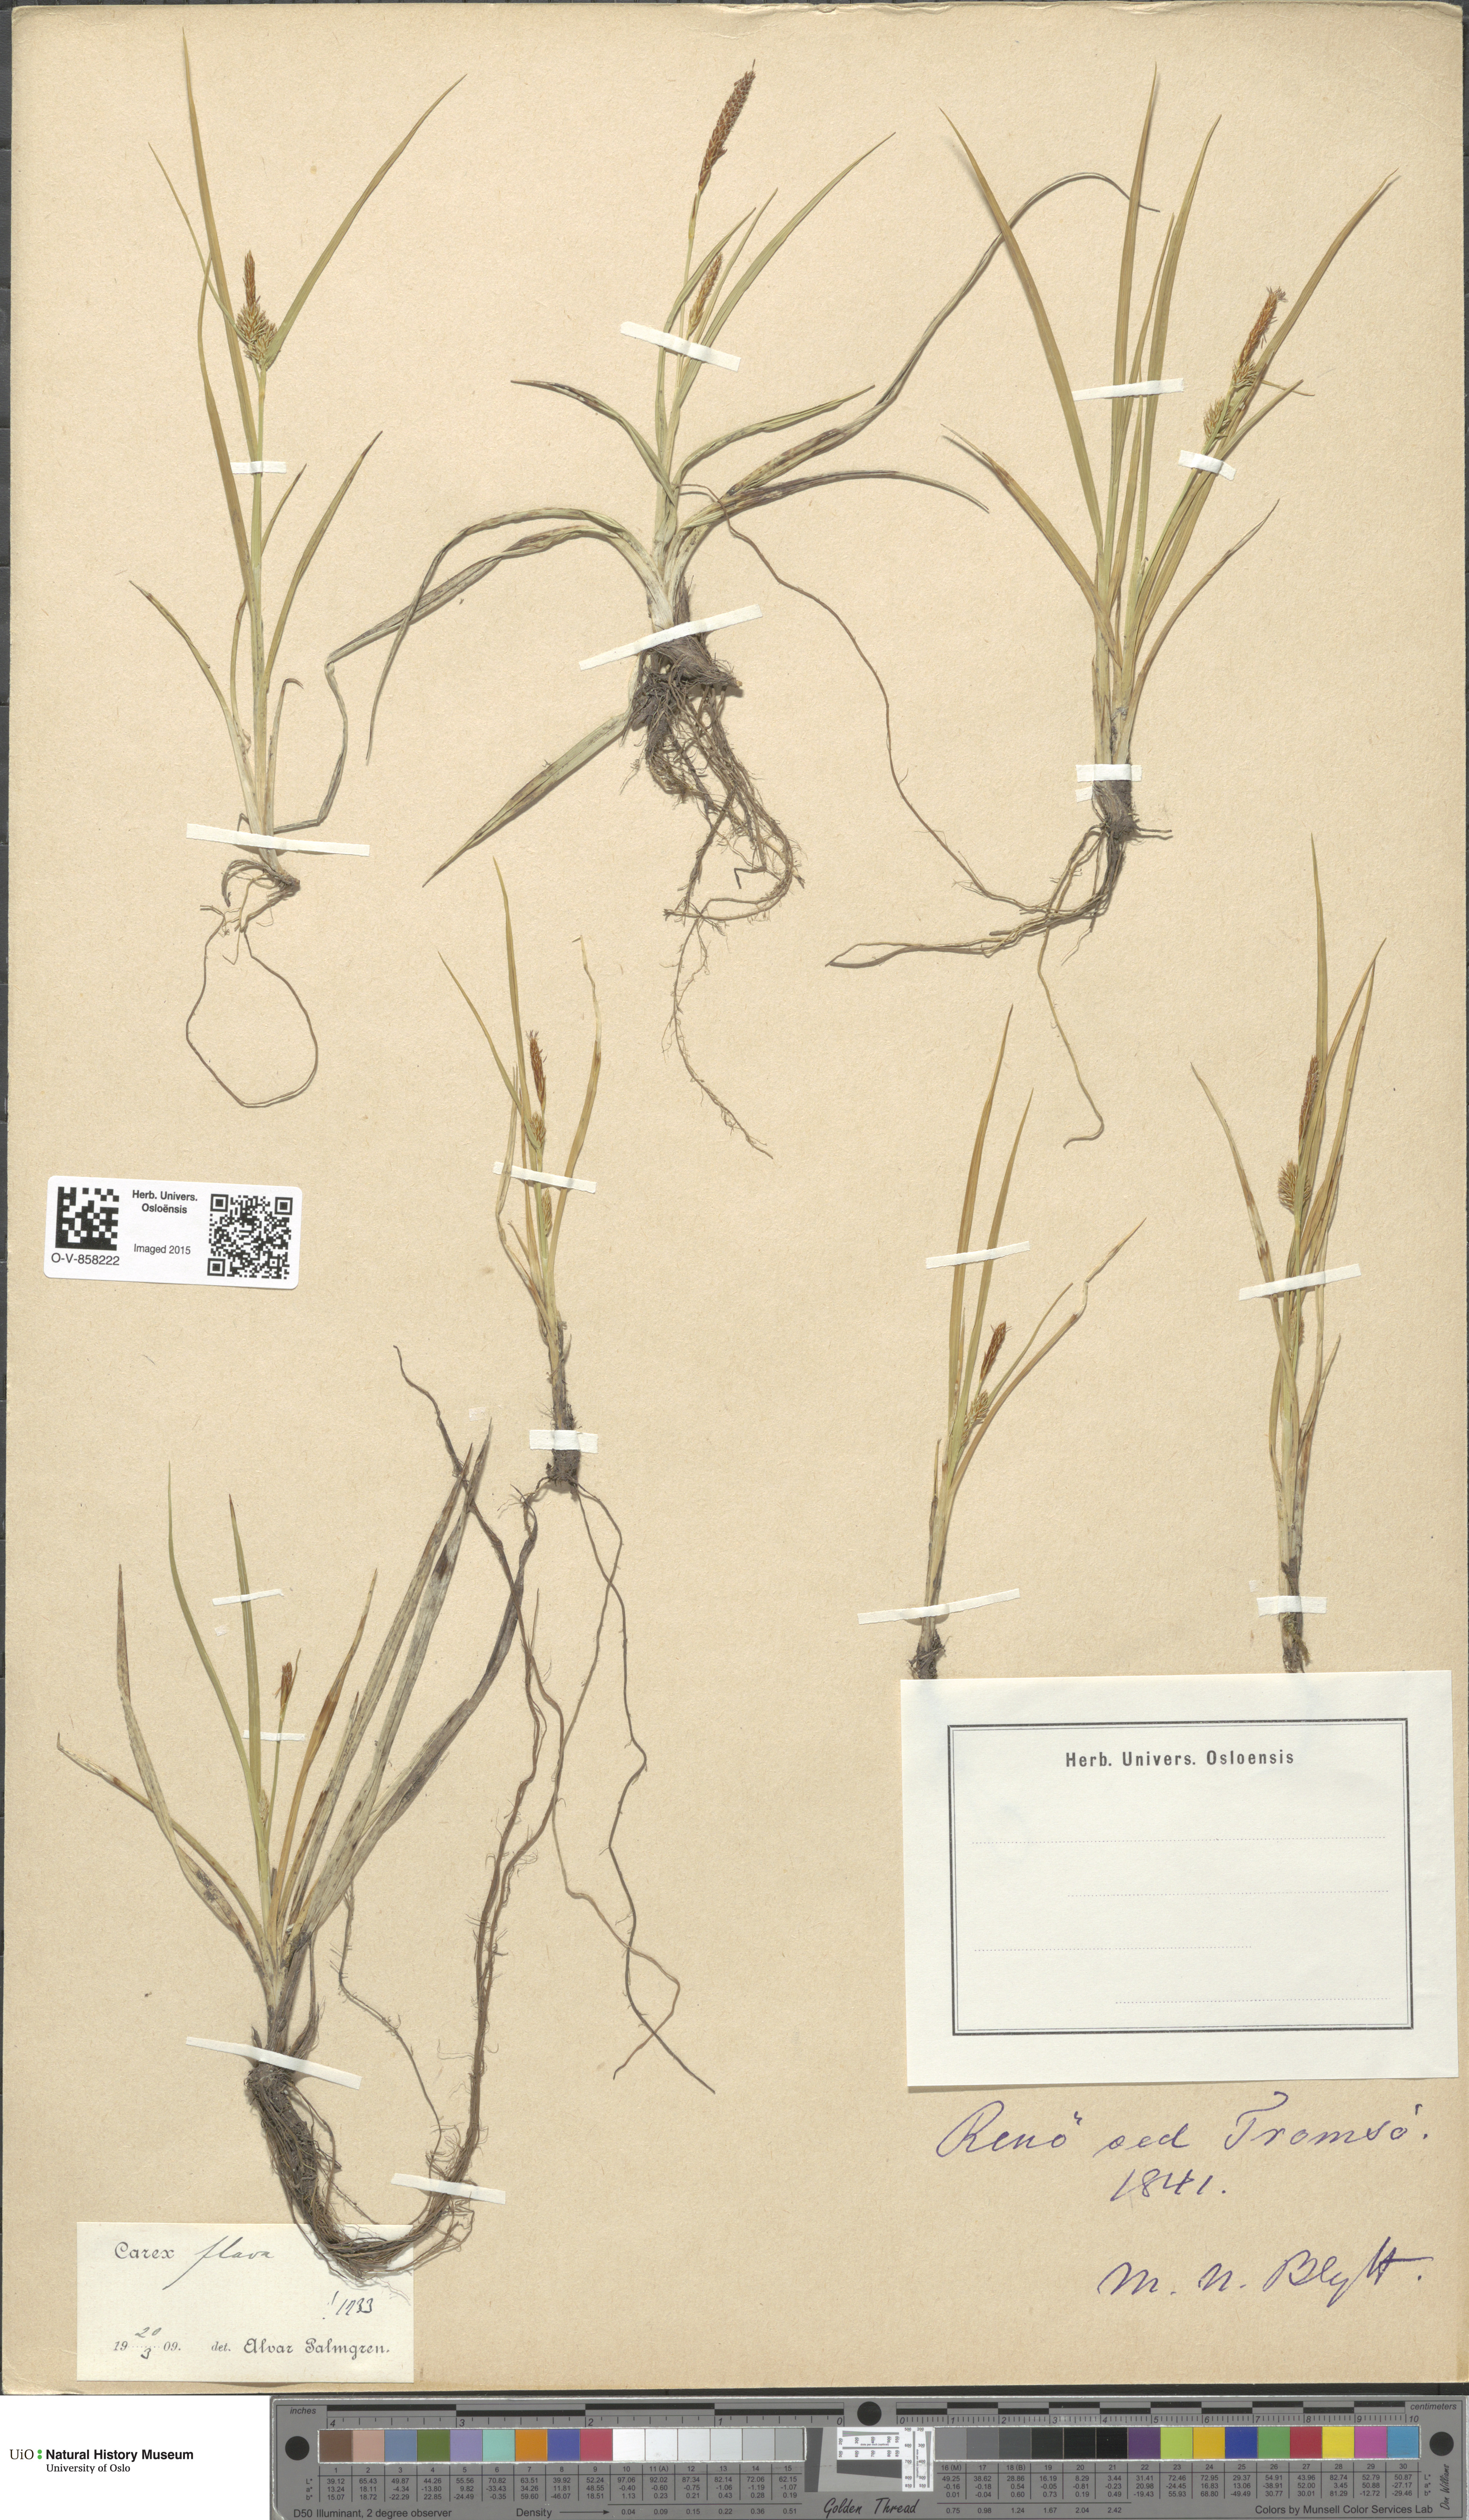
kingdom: Plantae
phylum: Tracheophyta
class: Liliopsida
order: Poales
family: Cyperaceae
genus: Carex
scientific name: Carex flava
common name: Large yellow-sedge
